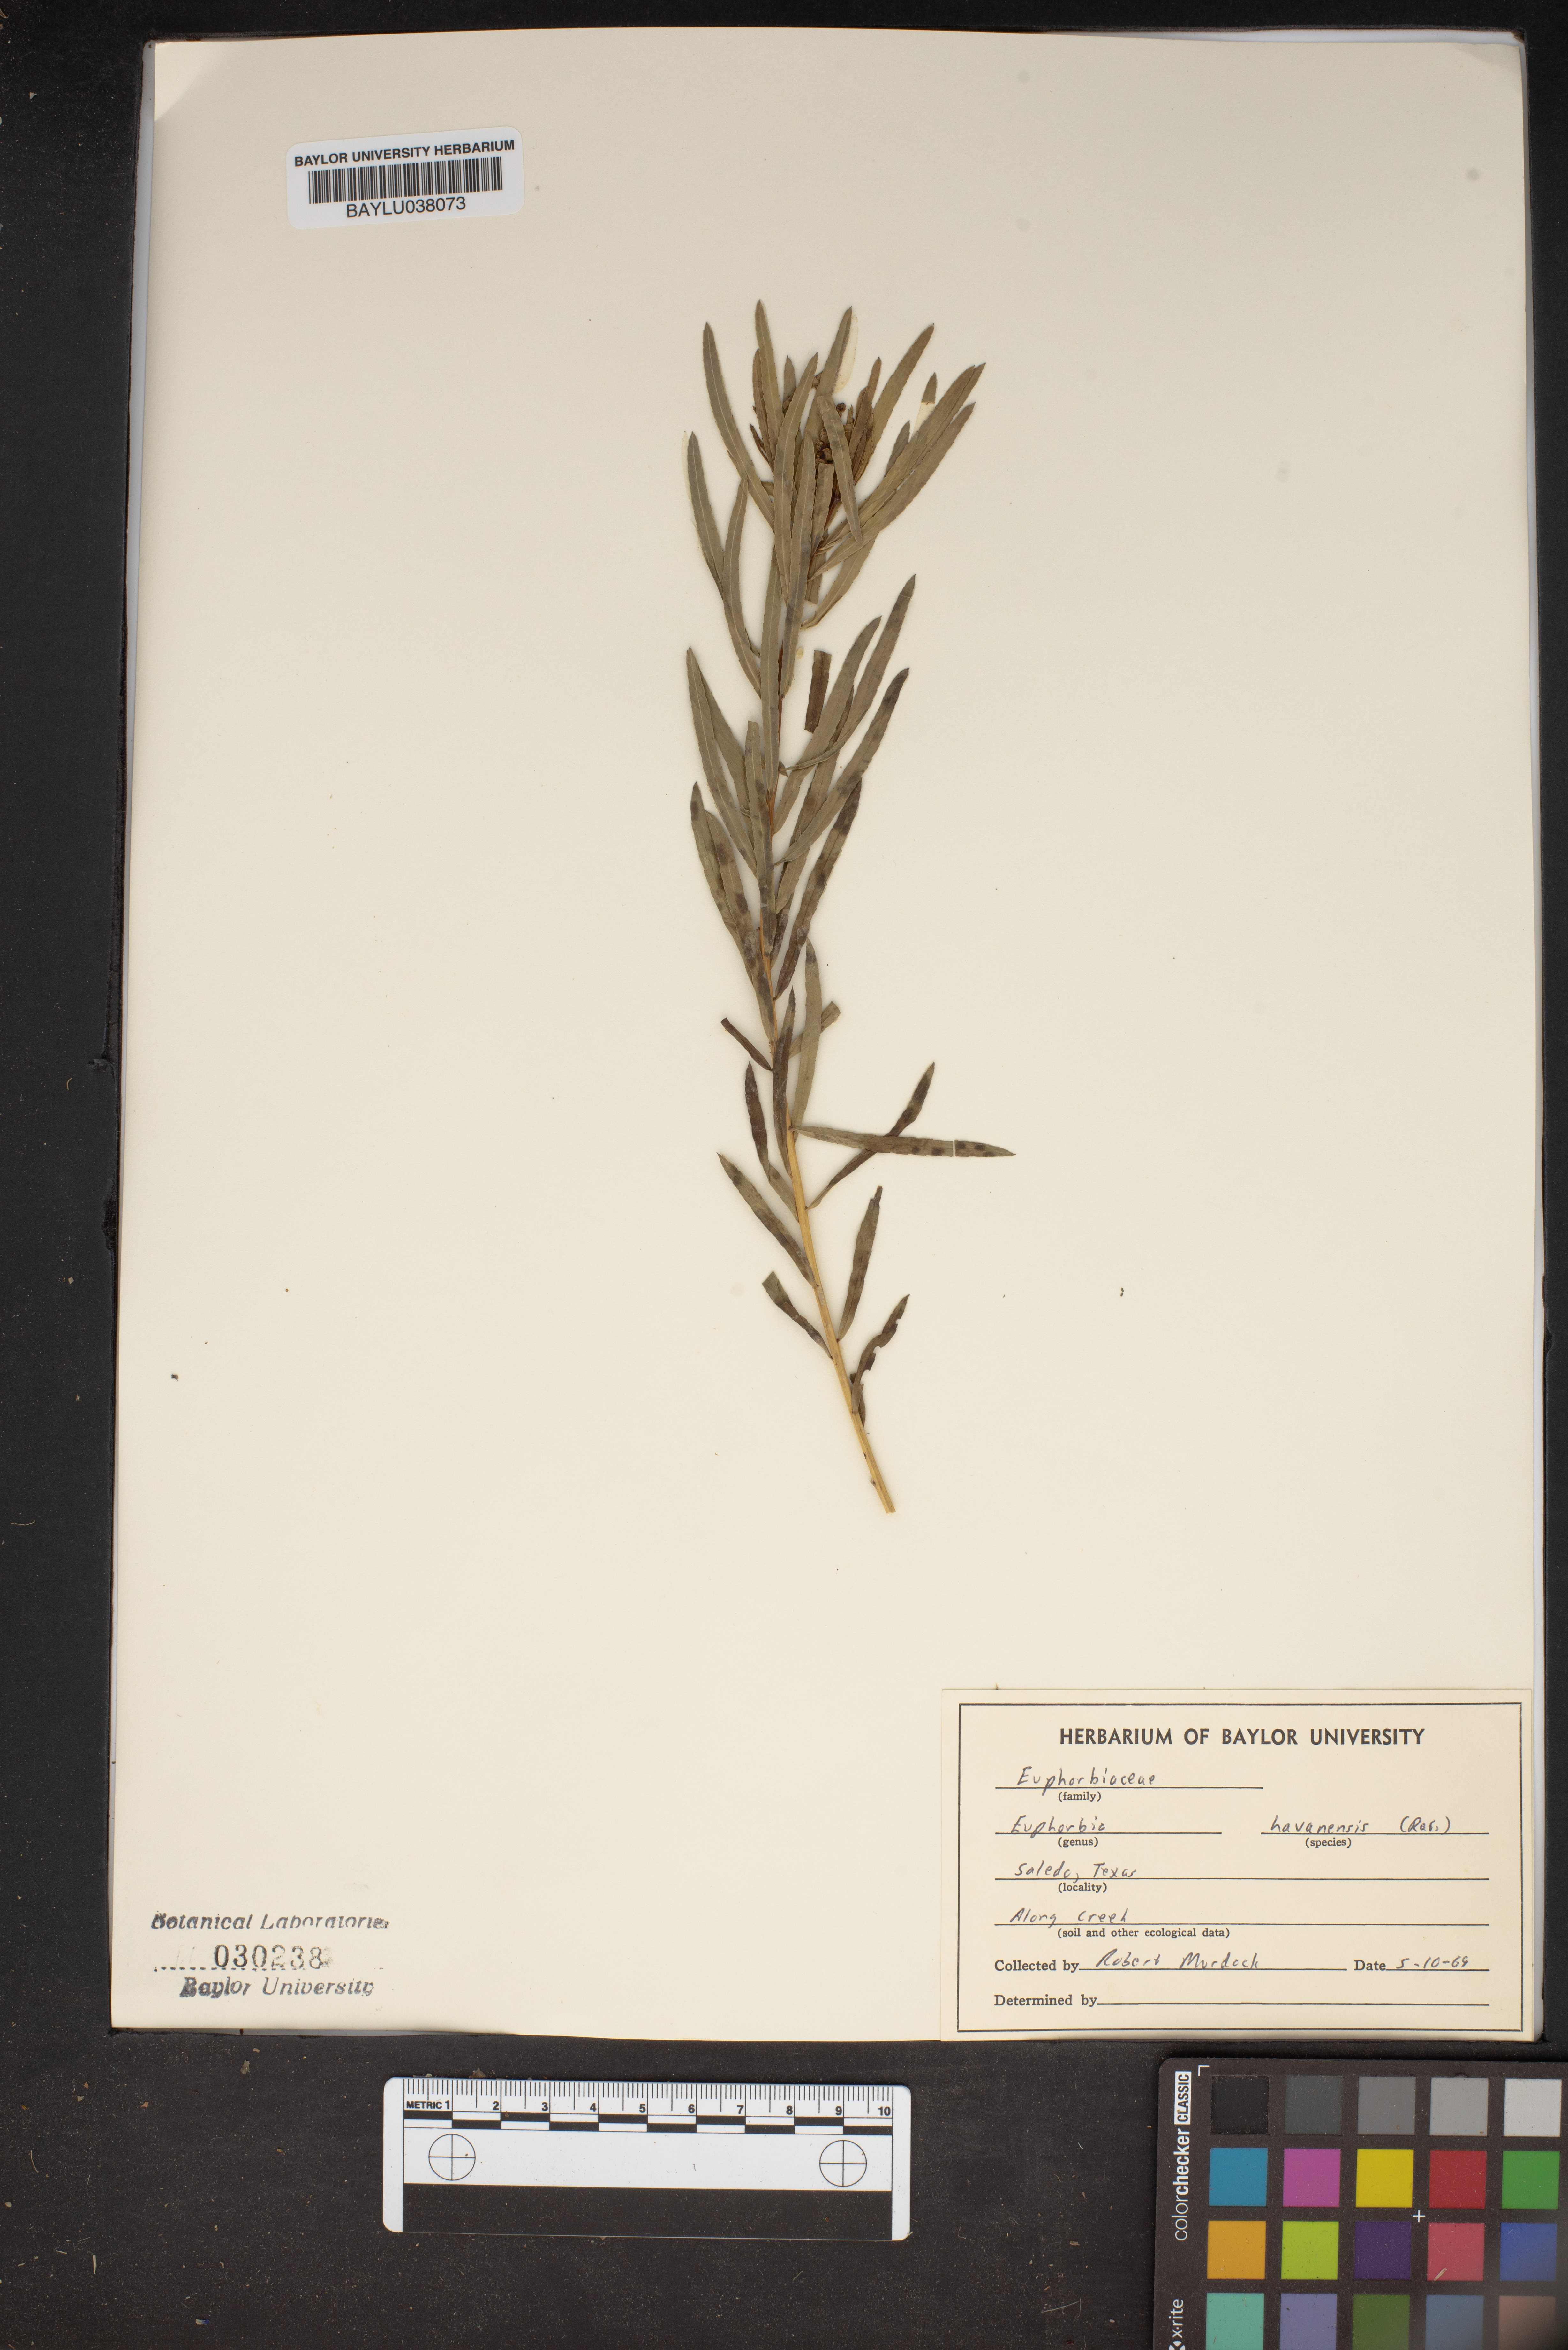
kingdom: Plantae
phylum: Tracheophyta
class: Magnoliopsida
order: Malpighiales
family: Euphorbiaceae
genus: Euphorbia
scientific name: Euphorbia havanensis
